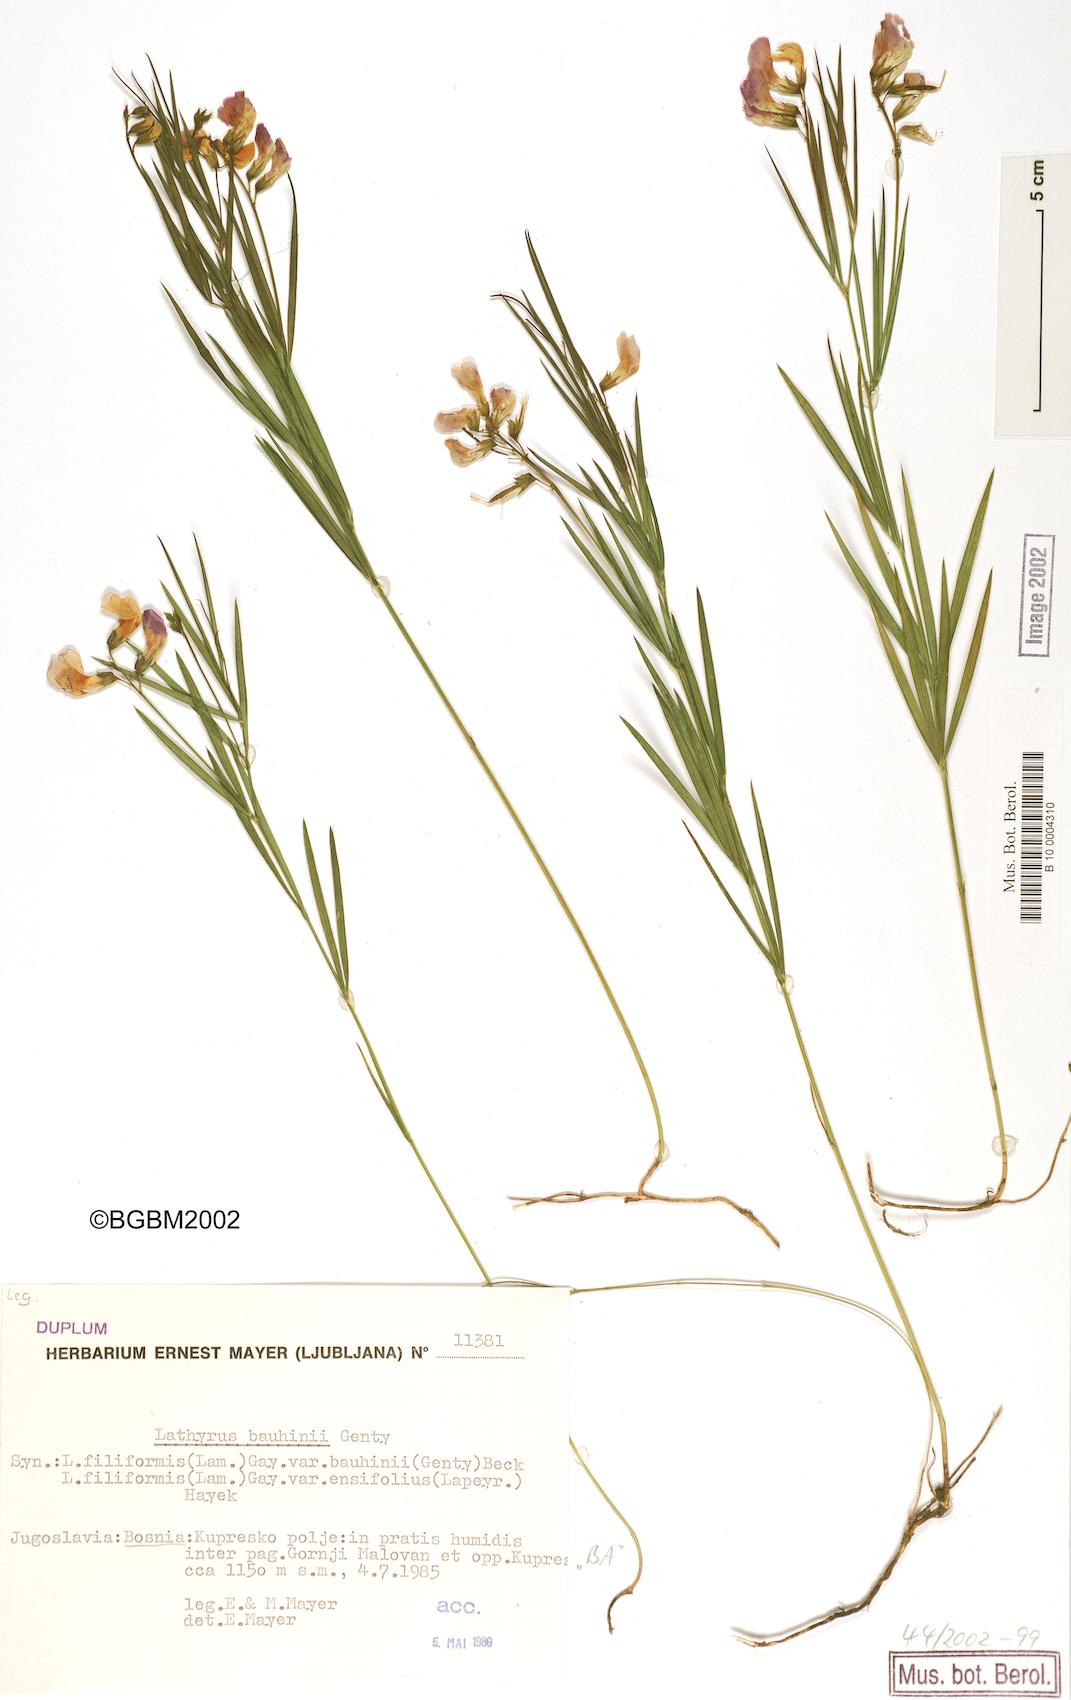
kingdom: Plantae
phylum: Tracheophyta
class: Magnoliopsida
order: Fabales
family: Fabaceae
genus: Lathyrus
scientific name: Lathyrus bauhini
